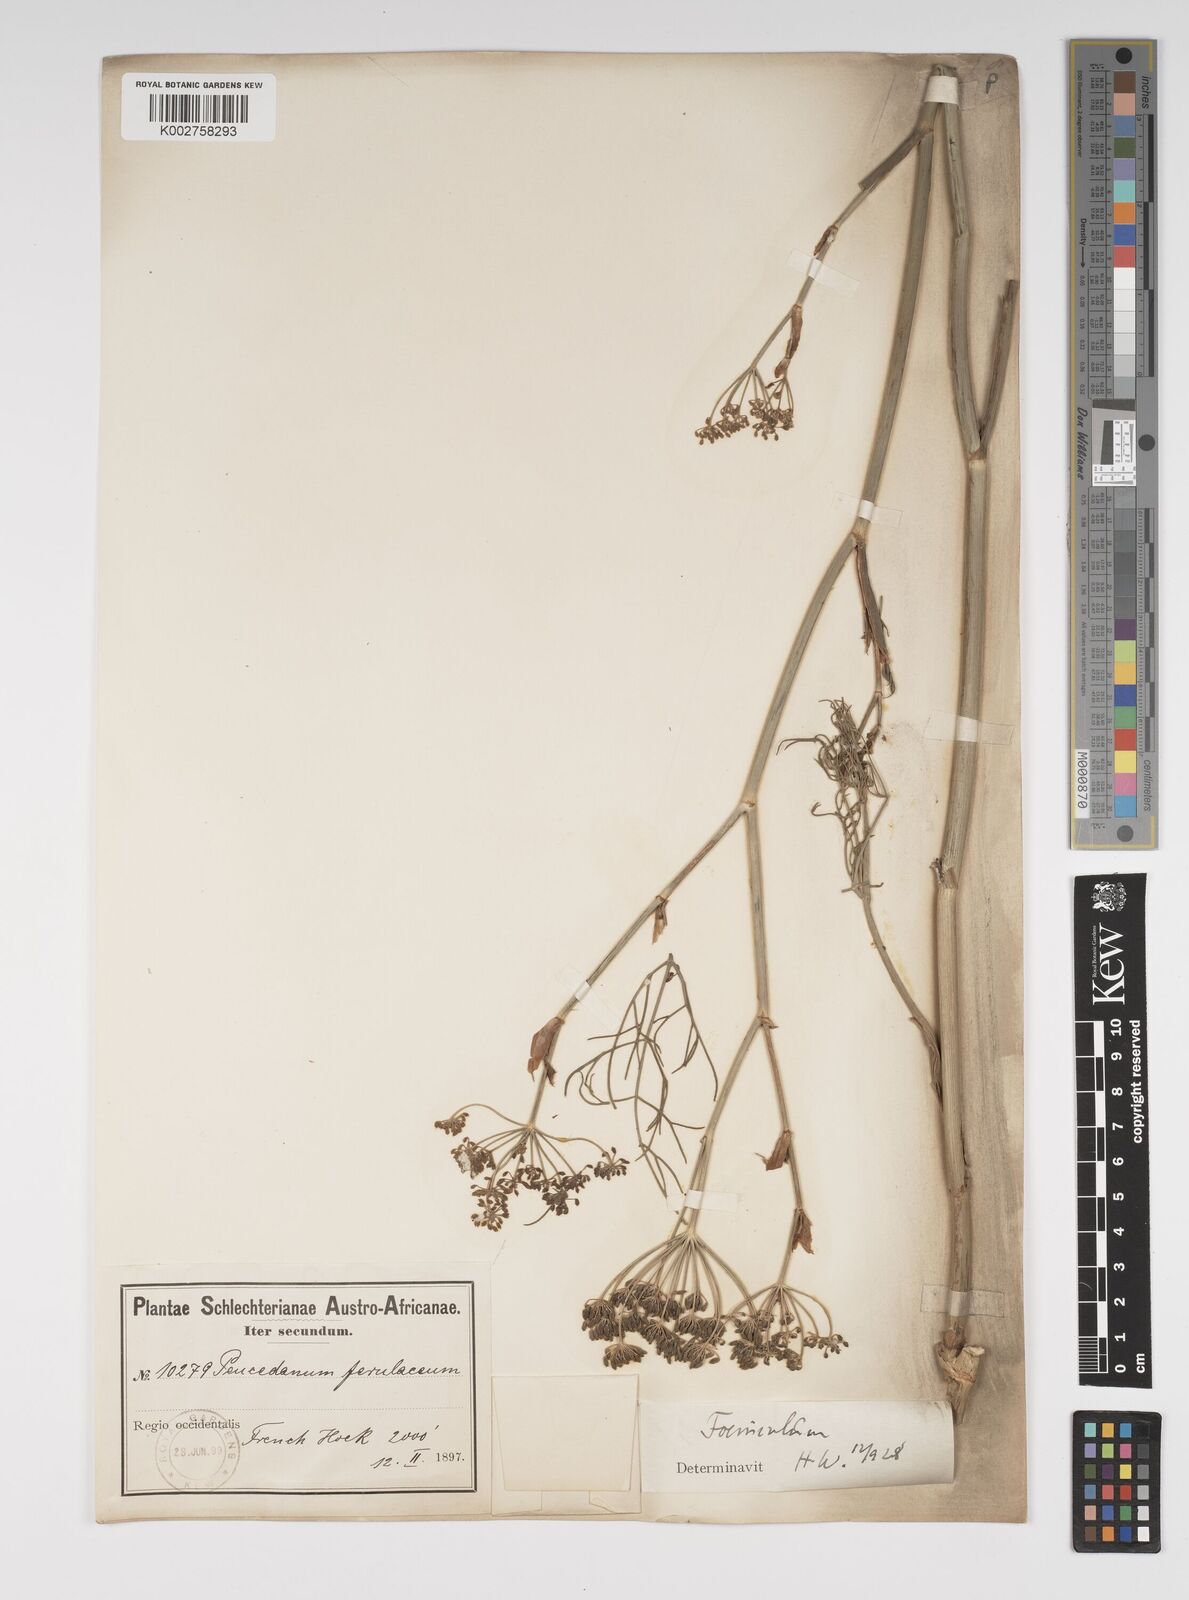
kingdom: Plantae
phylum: Tracheophyta
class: Magnoliopsida
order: Apiales
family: Apiaceae
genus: Foeniculum
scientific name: Foeniculum
